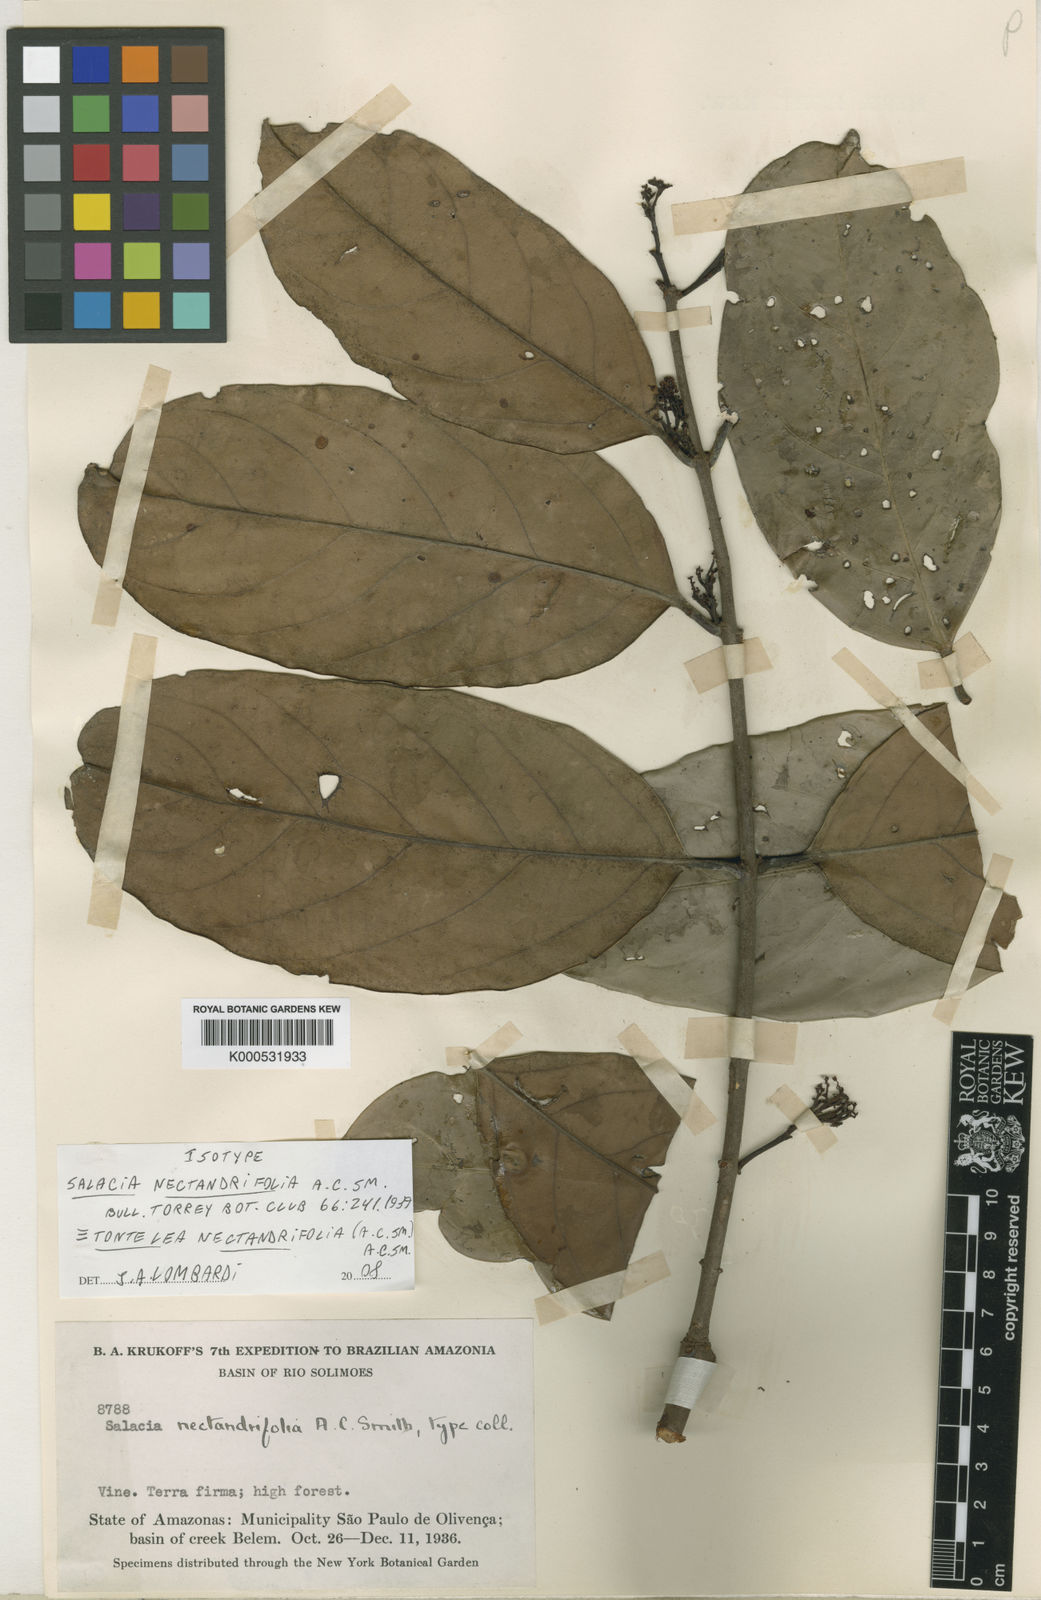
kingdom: Plantae
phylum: Tracheophyta
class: Magnoliopsida
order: Celastrales
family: Celastraceae
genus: Peritassa
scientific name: Peritassa nectandrifolia
